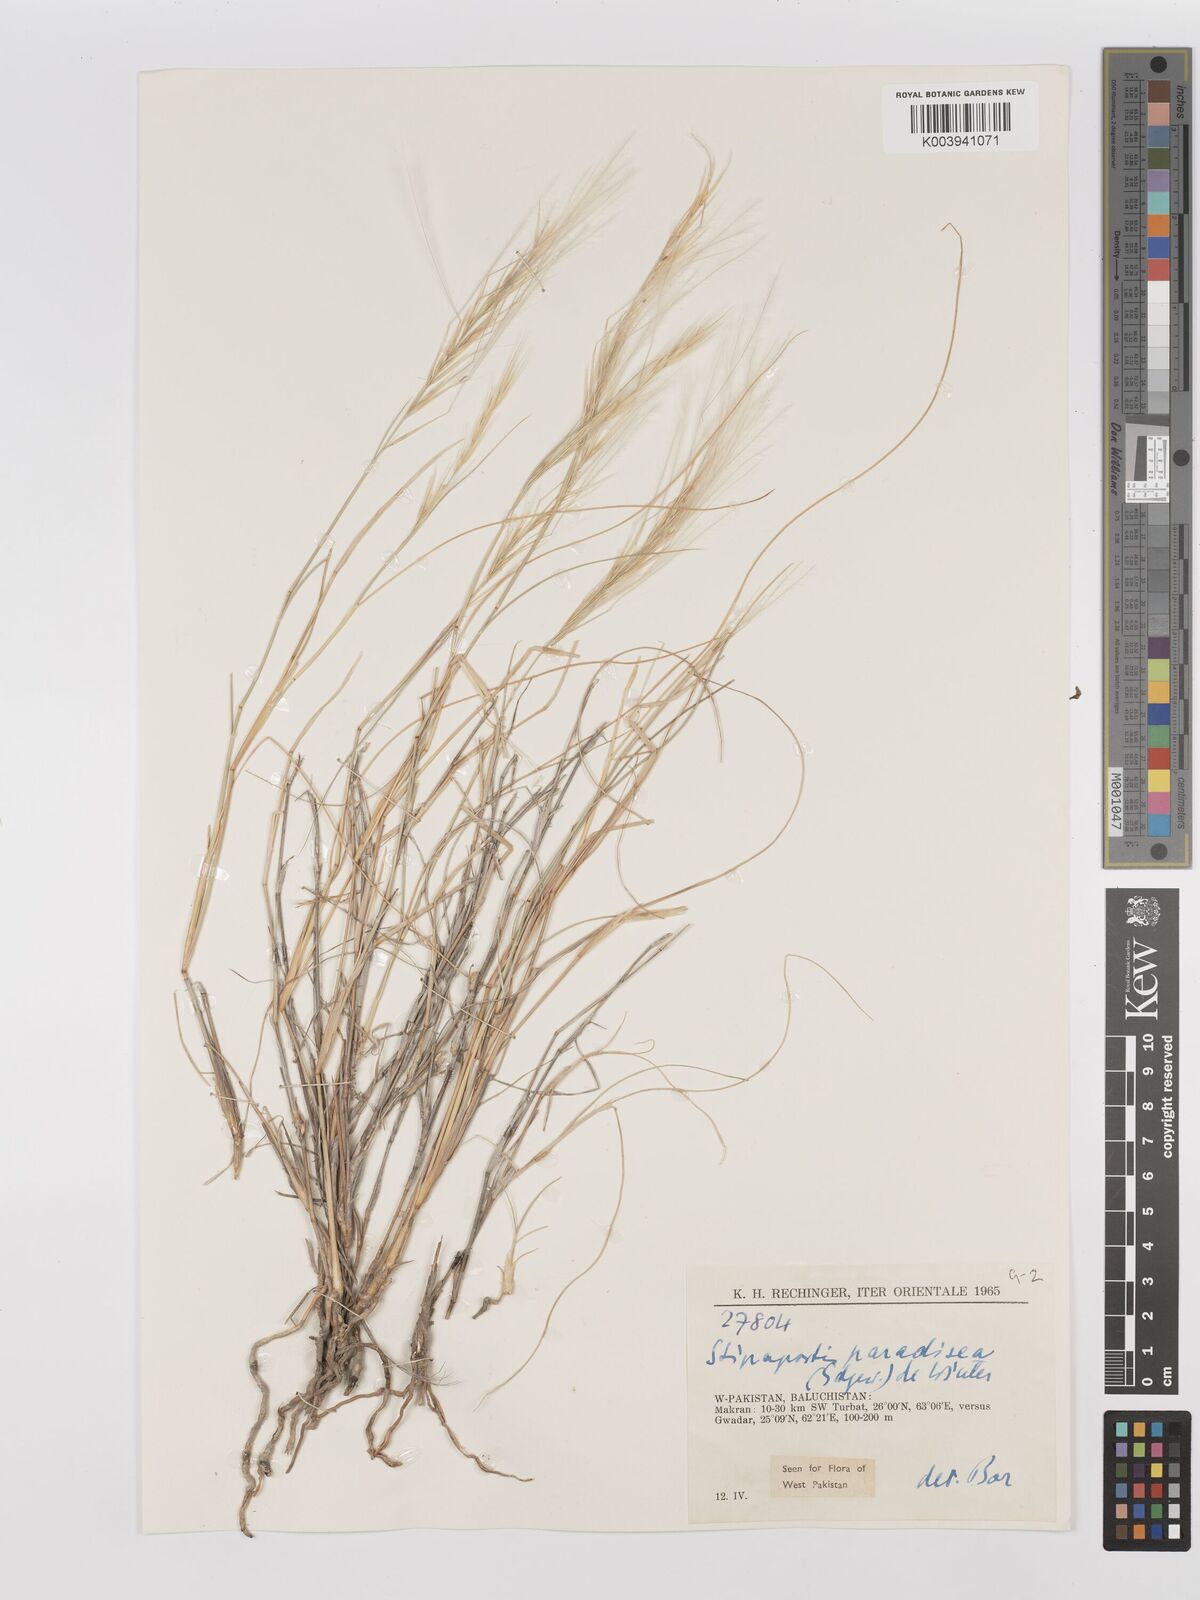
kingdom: Plantae
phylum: Tracheophyta
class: Liliopsida
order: Poales
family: Poaceae
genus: Stipagrostis
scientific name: Stipagrostis paradisea
